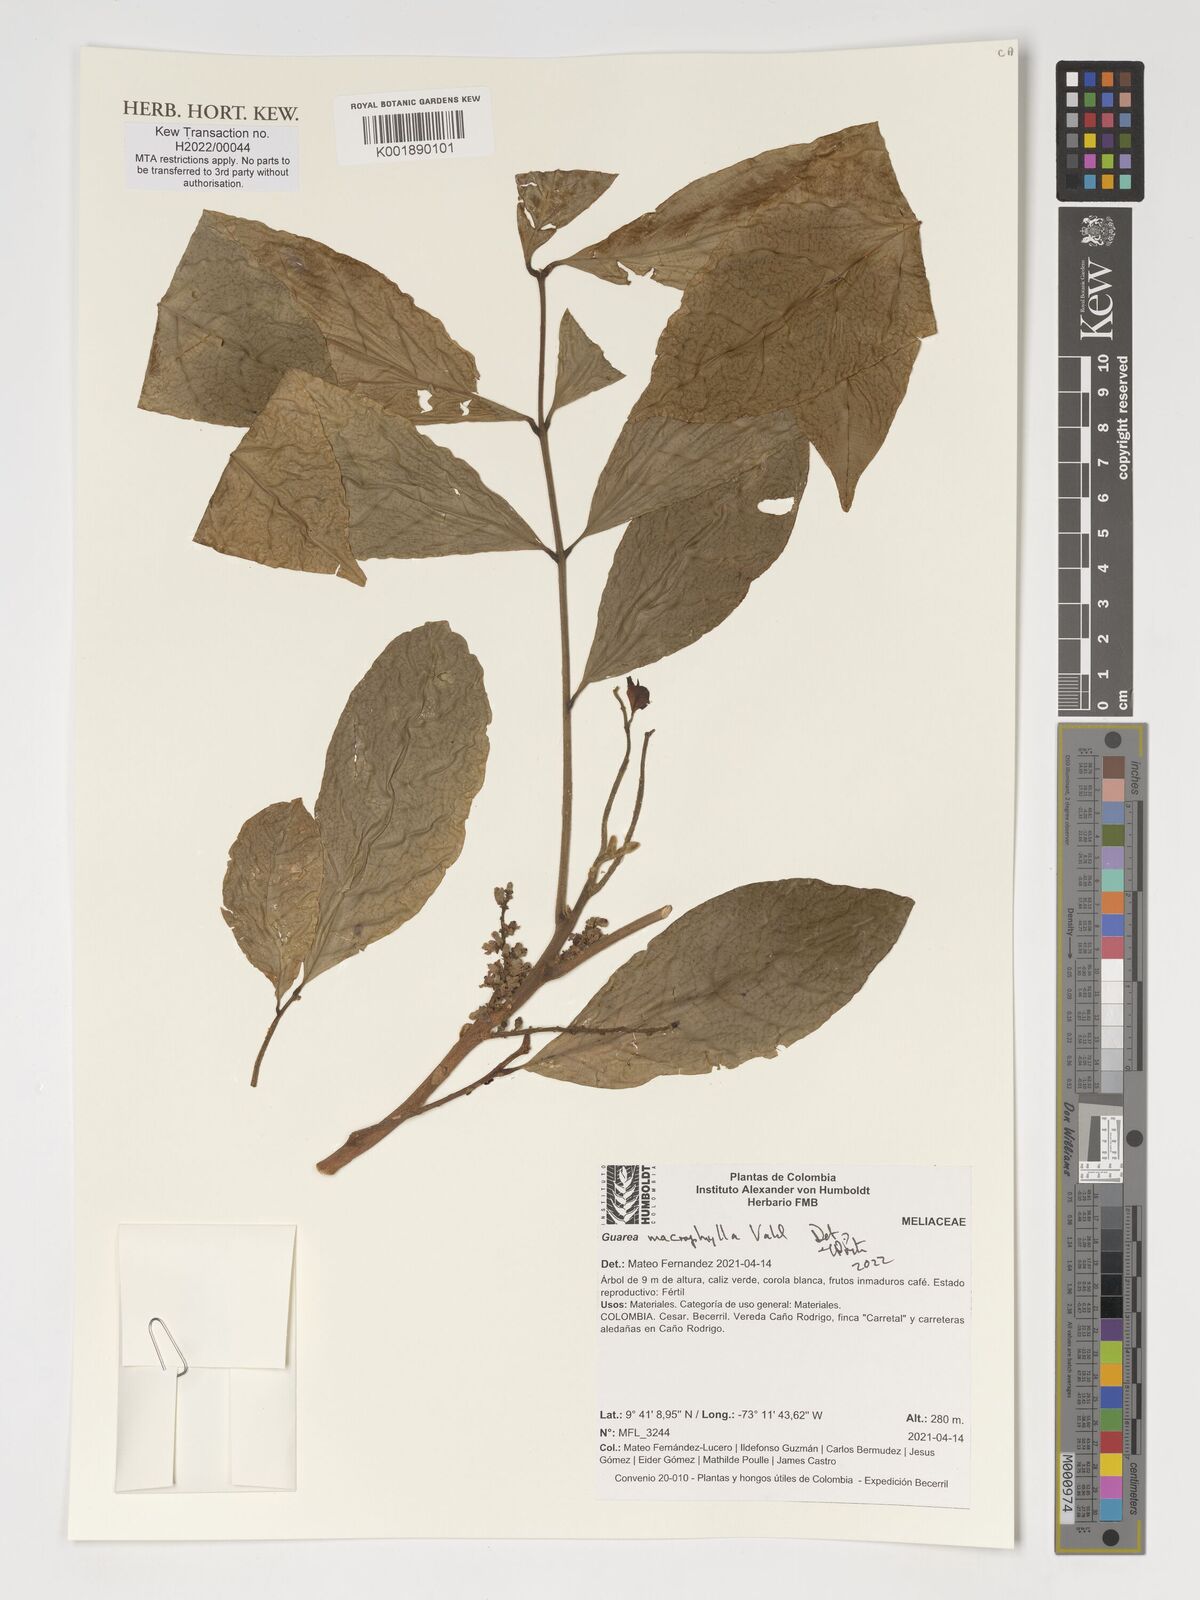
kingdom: Plantae
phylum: Tracheophyta
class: Magnoliopsida
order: Sapindales
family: Meliaceae
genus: Guarea
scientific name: Guarea macrophylla
